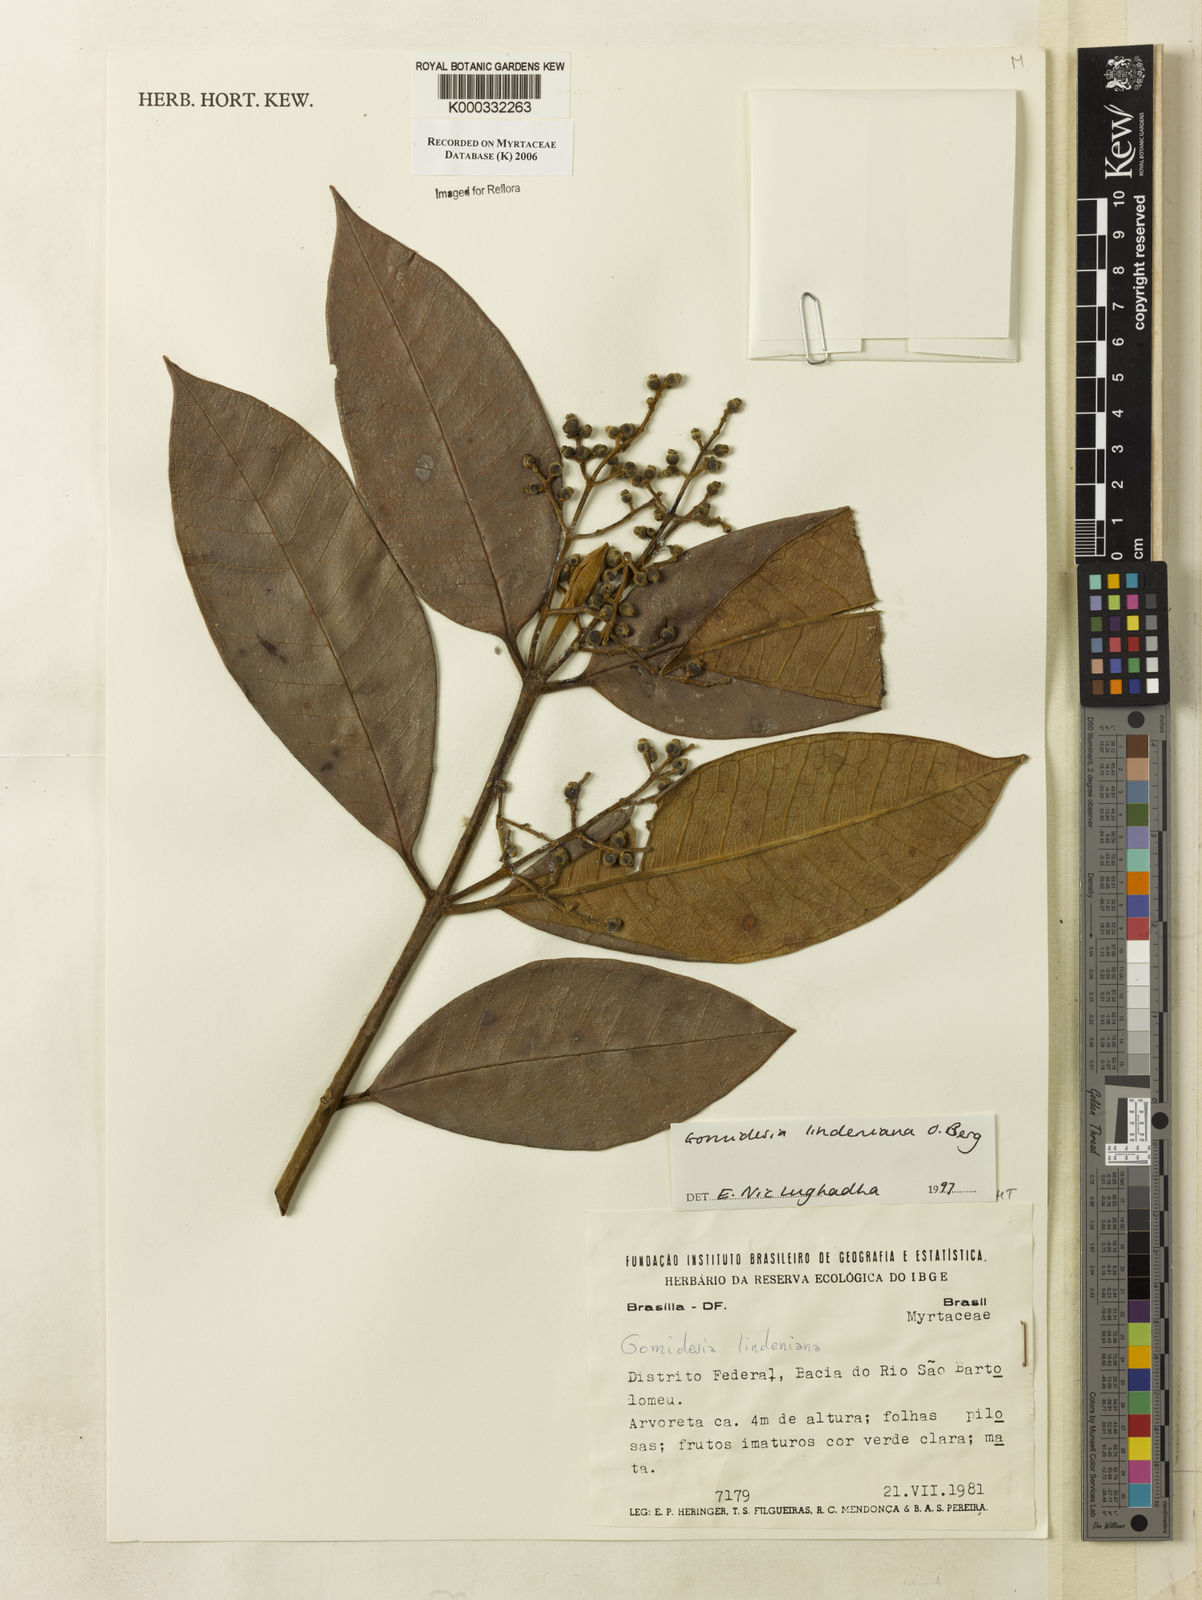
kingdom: Plantae
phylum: Tracheophyta
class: Magnoliopsida
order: Myrtales
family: Myrtaceae
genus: Myrcia
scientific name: Myrcia fenzliana
